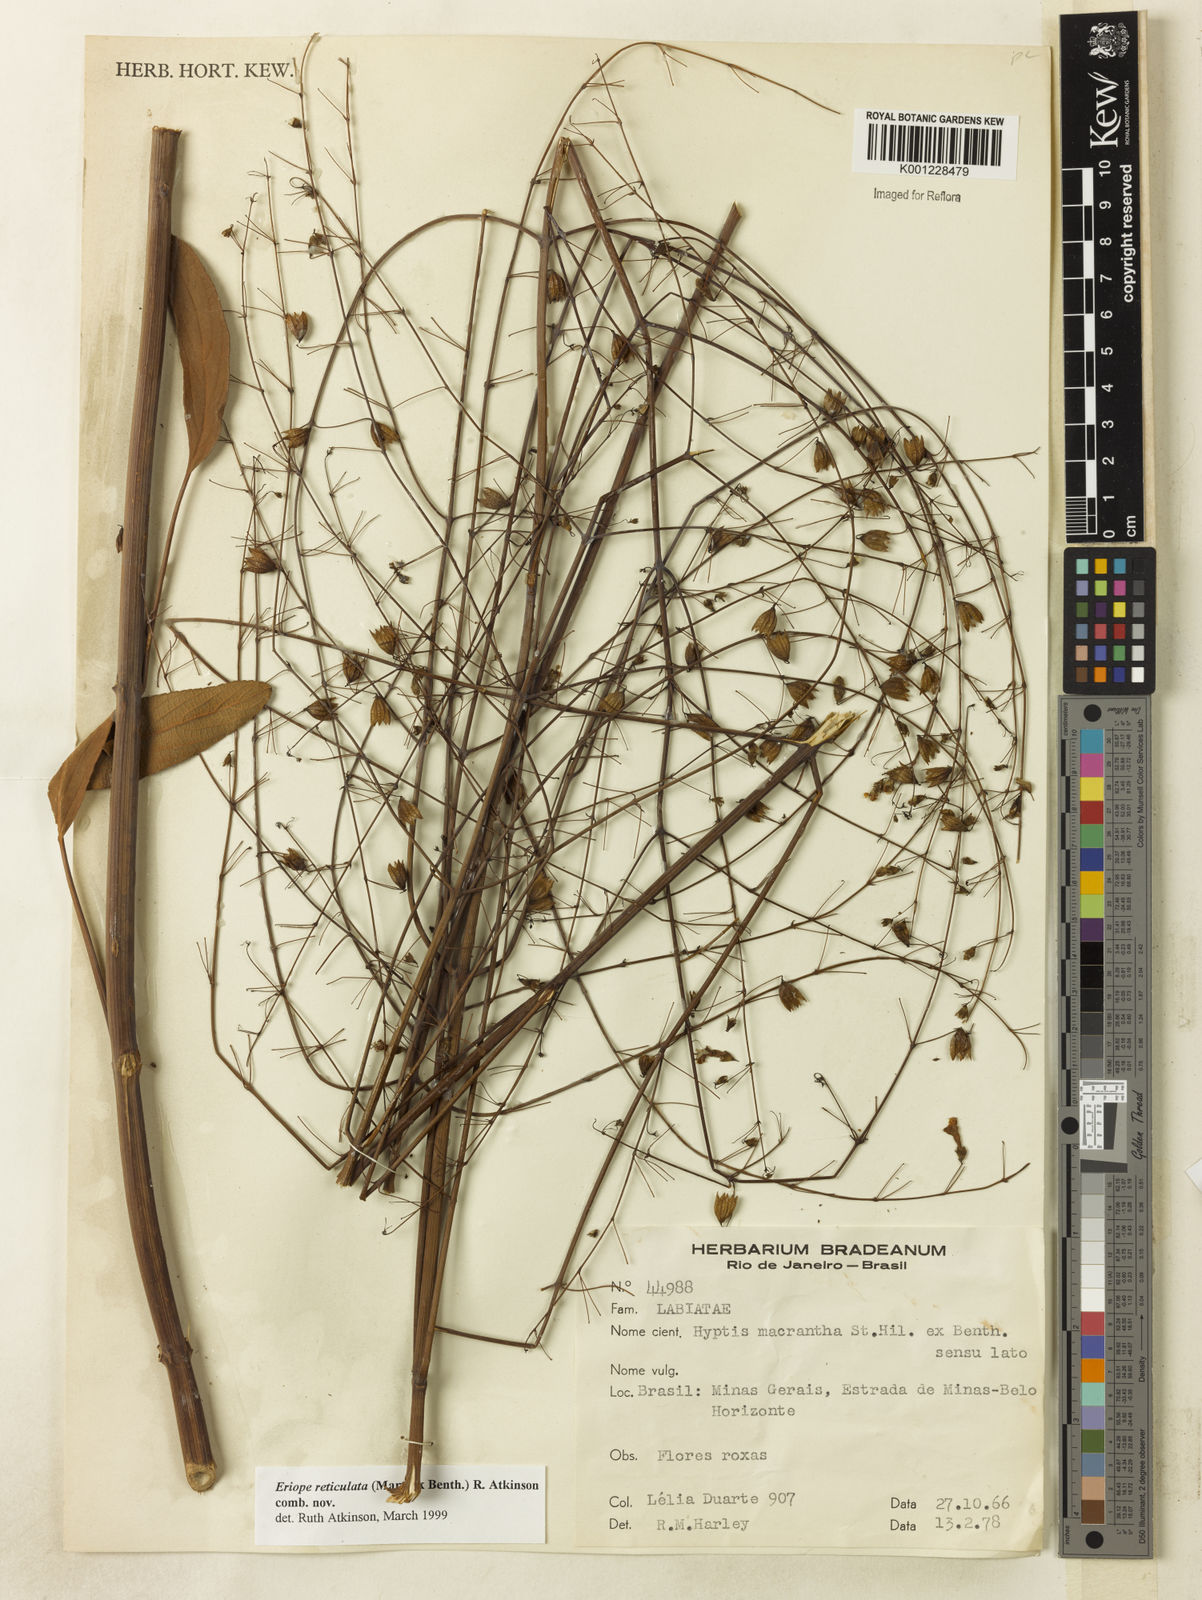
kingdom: Plantae
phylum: Tracheophyta
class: Magnoliopsida
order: Lamiales
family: Lamiaceae
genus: Hypenia
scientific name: Hypenia reticulata
